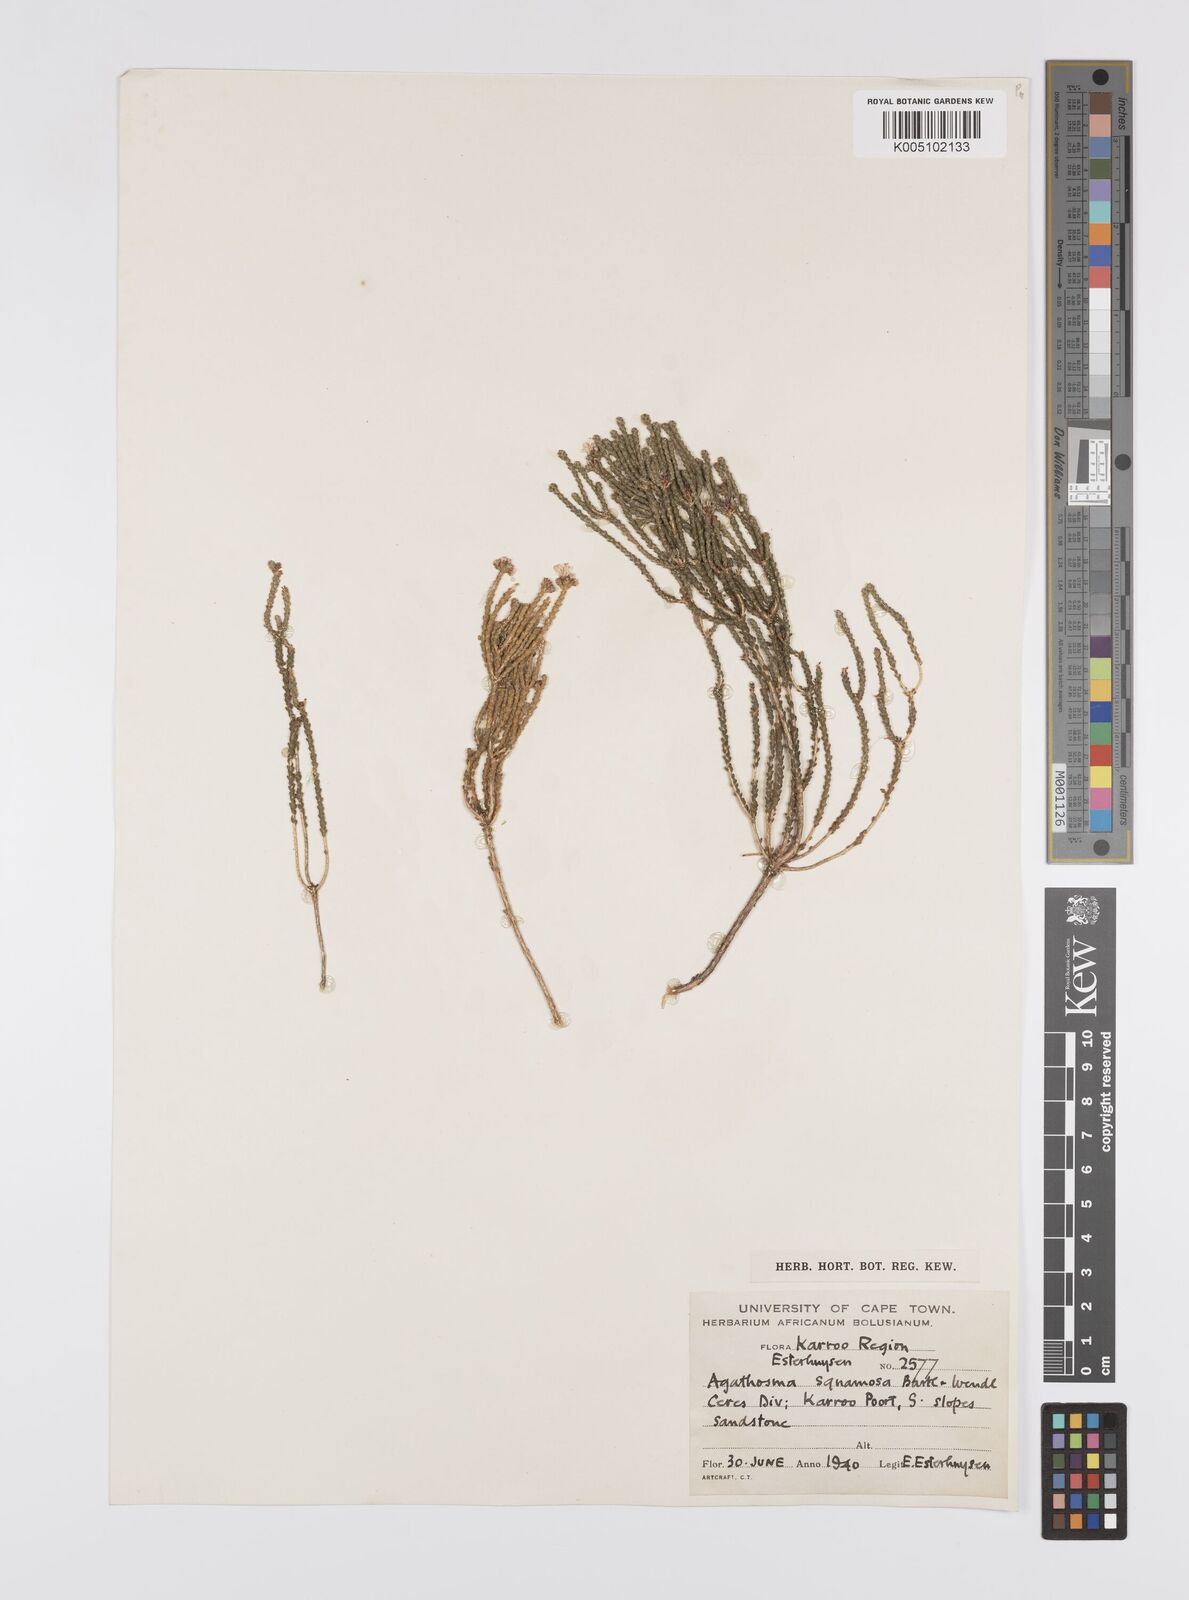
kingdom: Plantae
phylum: Tracheophyta
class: Magnoliopsida
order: Sapindales
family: Rutaceae
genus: Agathosma
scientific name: Agathosma squamosa
